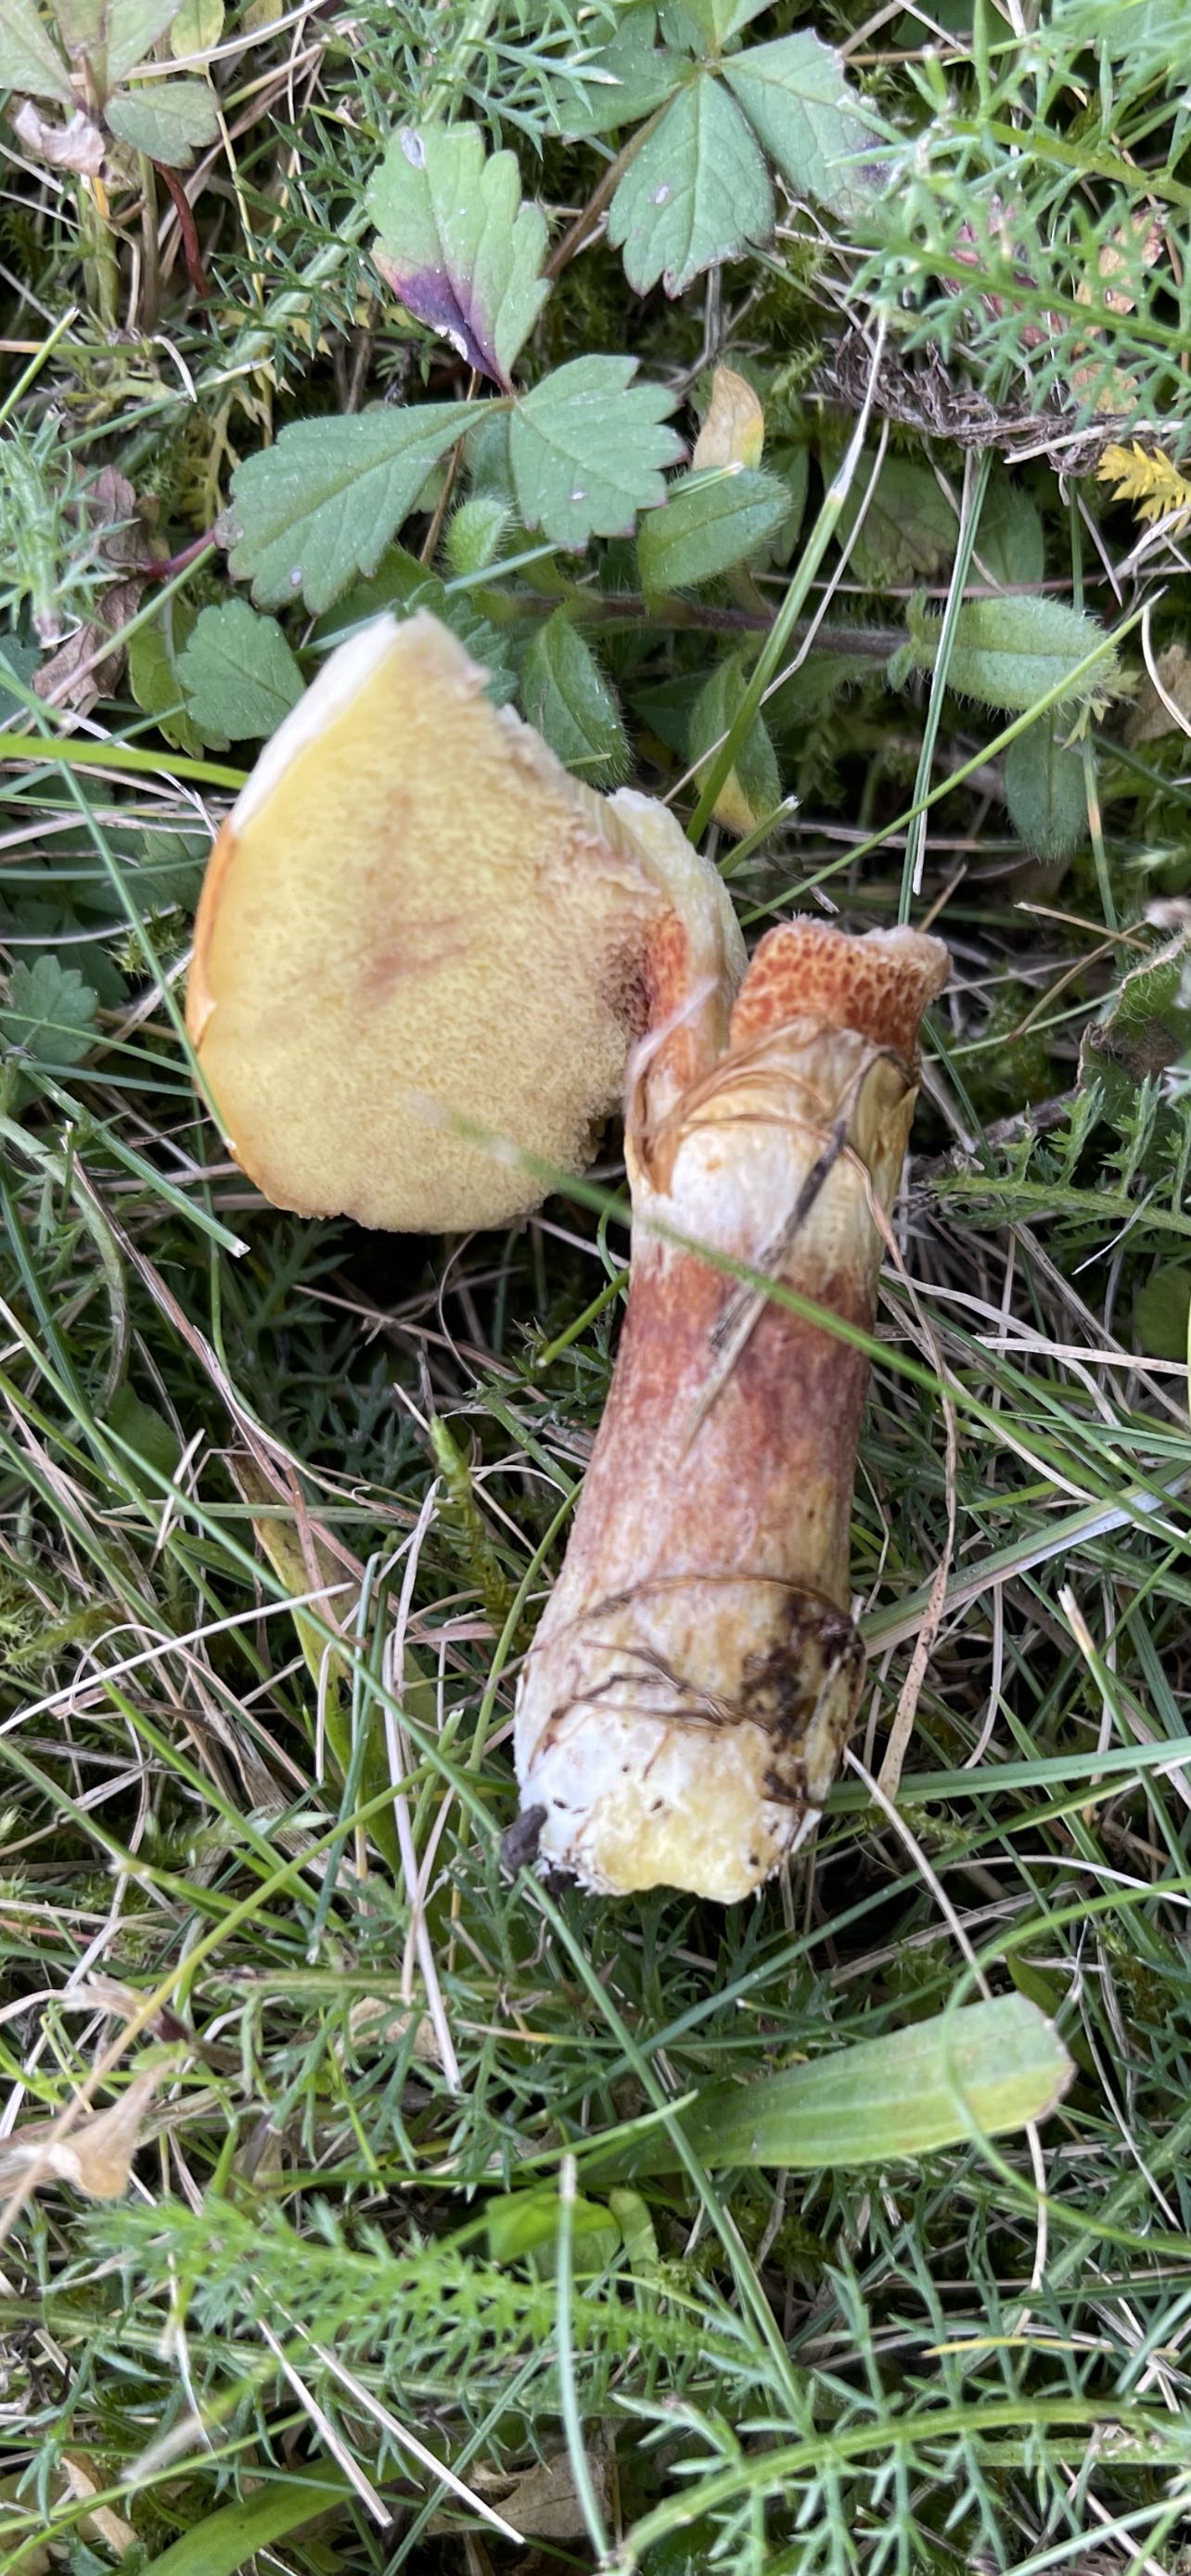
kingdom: Fungi
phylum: Basidiomycota
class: Agaricomycetes
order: Boletales
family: Suillaceae
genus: Suillus
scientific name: Suillus grevillei
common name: lærke-slimrørhat
